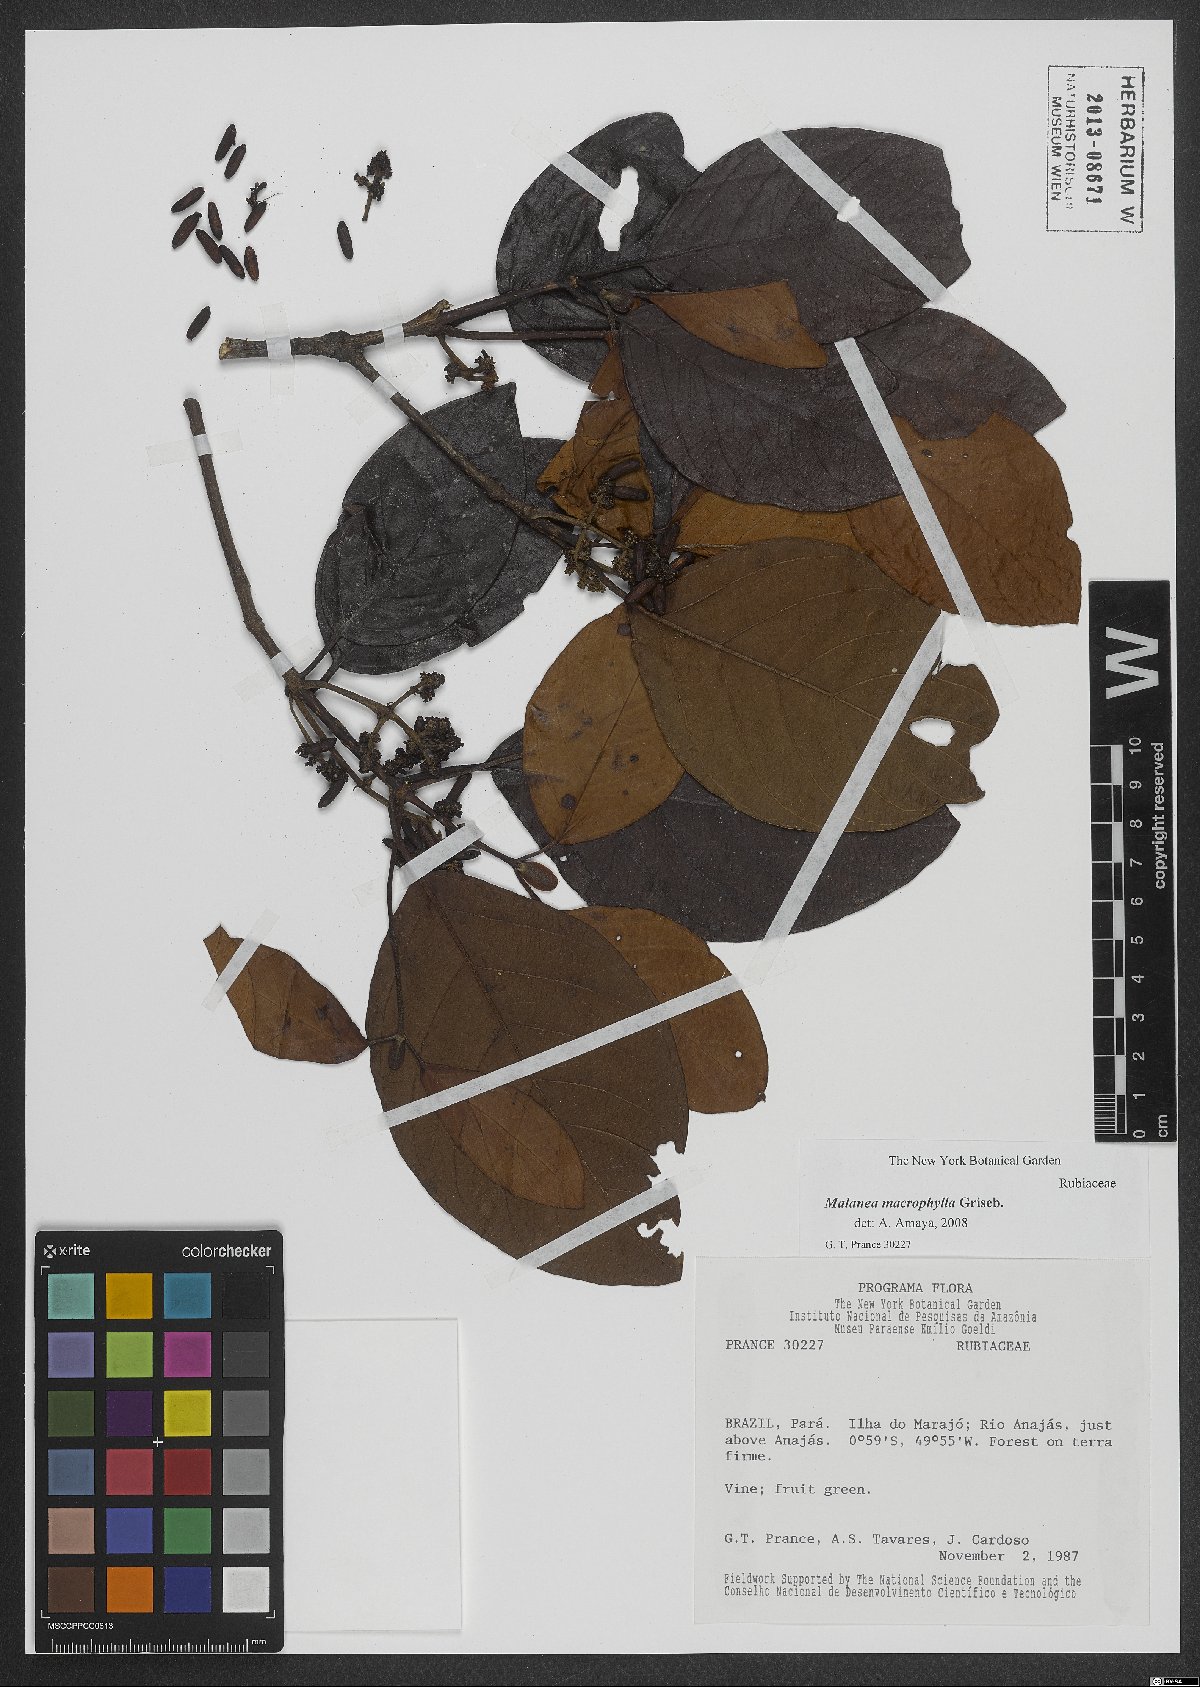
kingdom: Plantae
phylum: Tracheophyta
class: Magnoliopsida
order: Gentianales
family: Rubiaceae
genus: Malanea
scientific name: Malanea glabra
